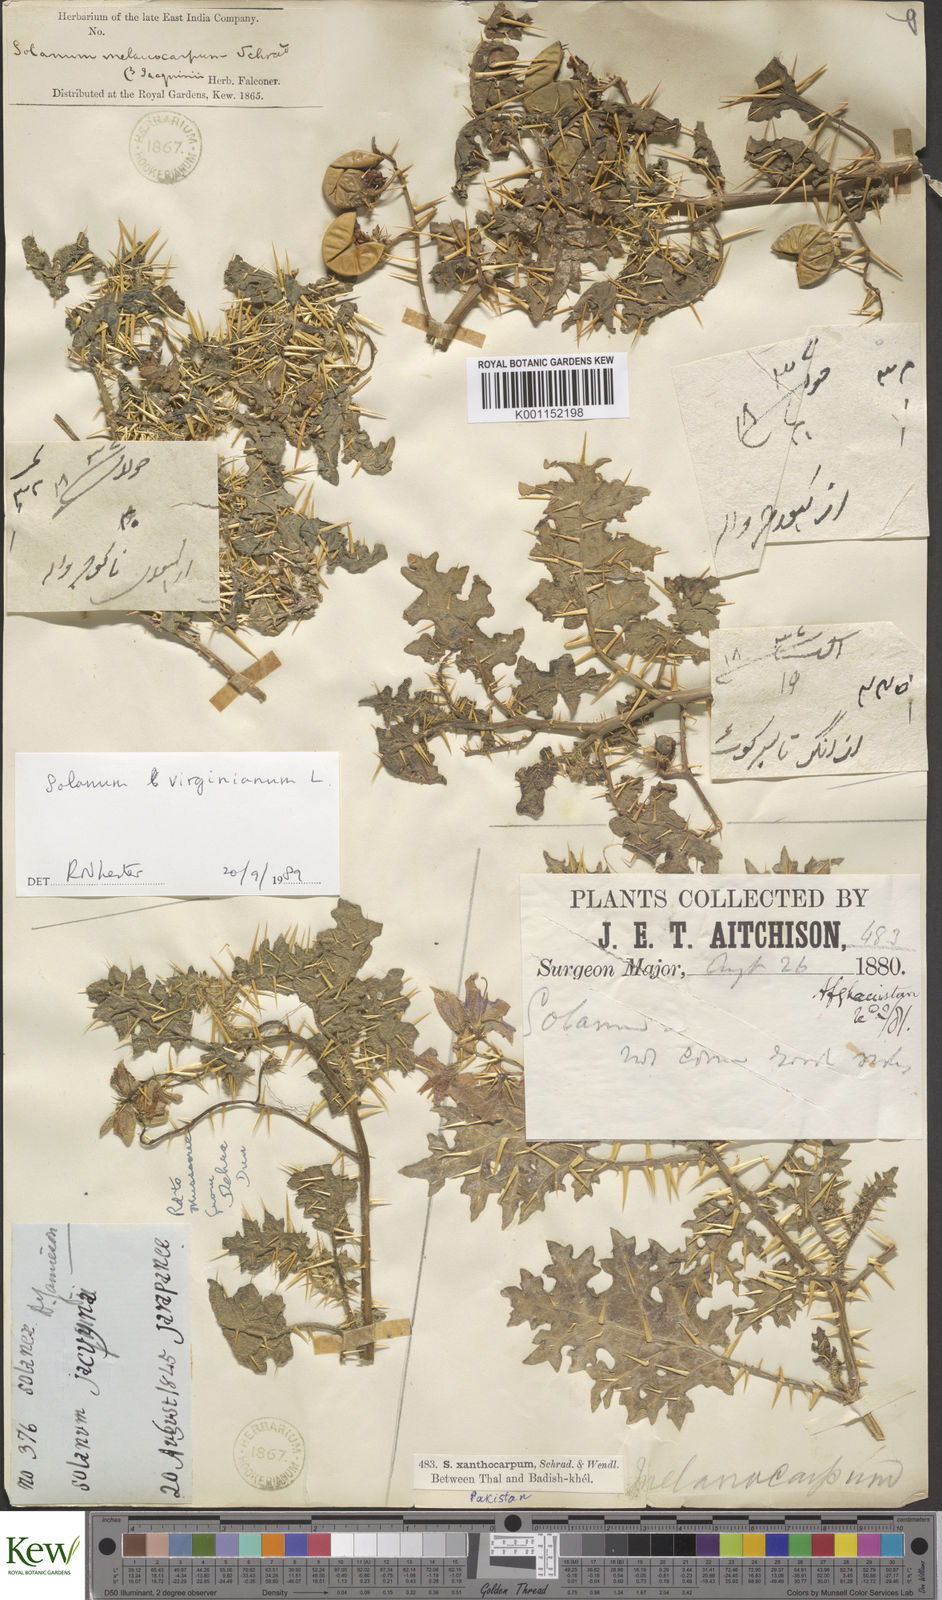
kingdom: Plantae
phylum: Tracheophyta
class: Magnoliopsida
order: Solanales
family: Solanaceae
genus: Solanum
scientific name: Solanum virginianum
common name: Surattense nightshade
